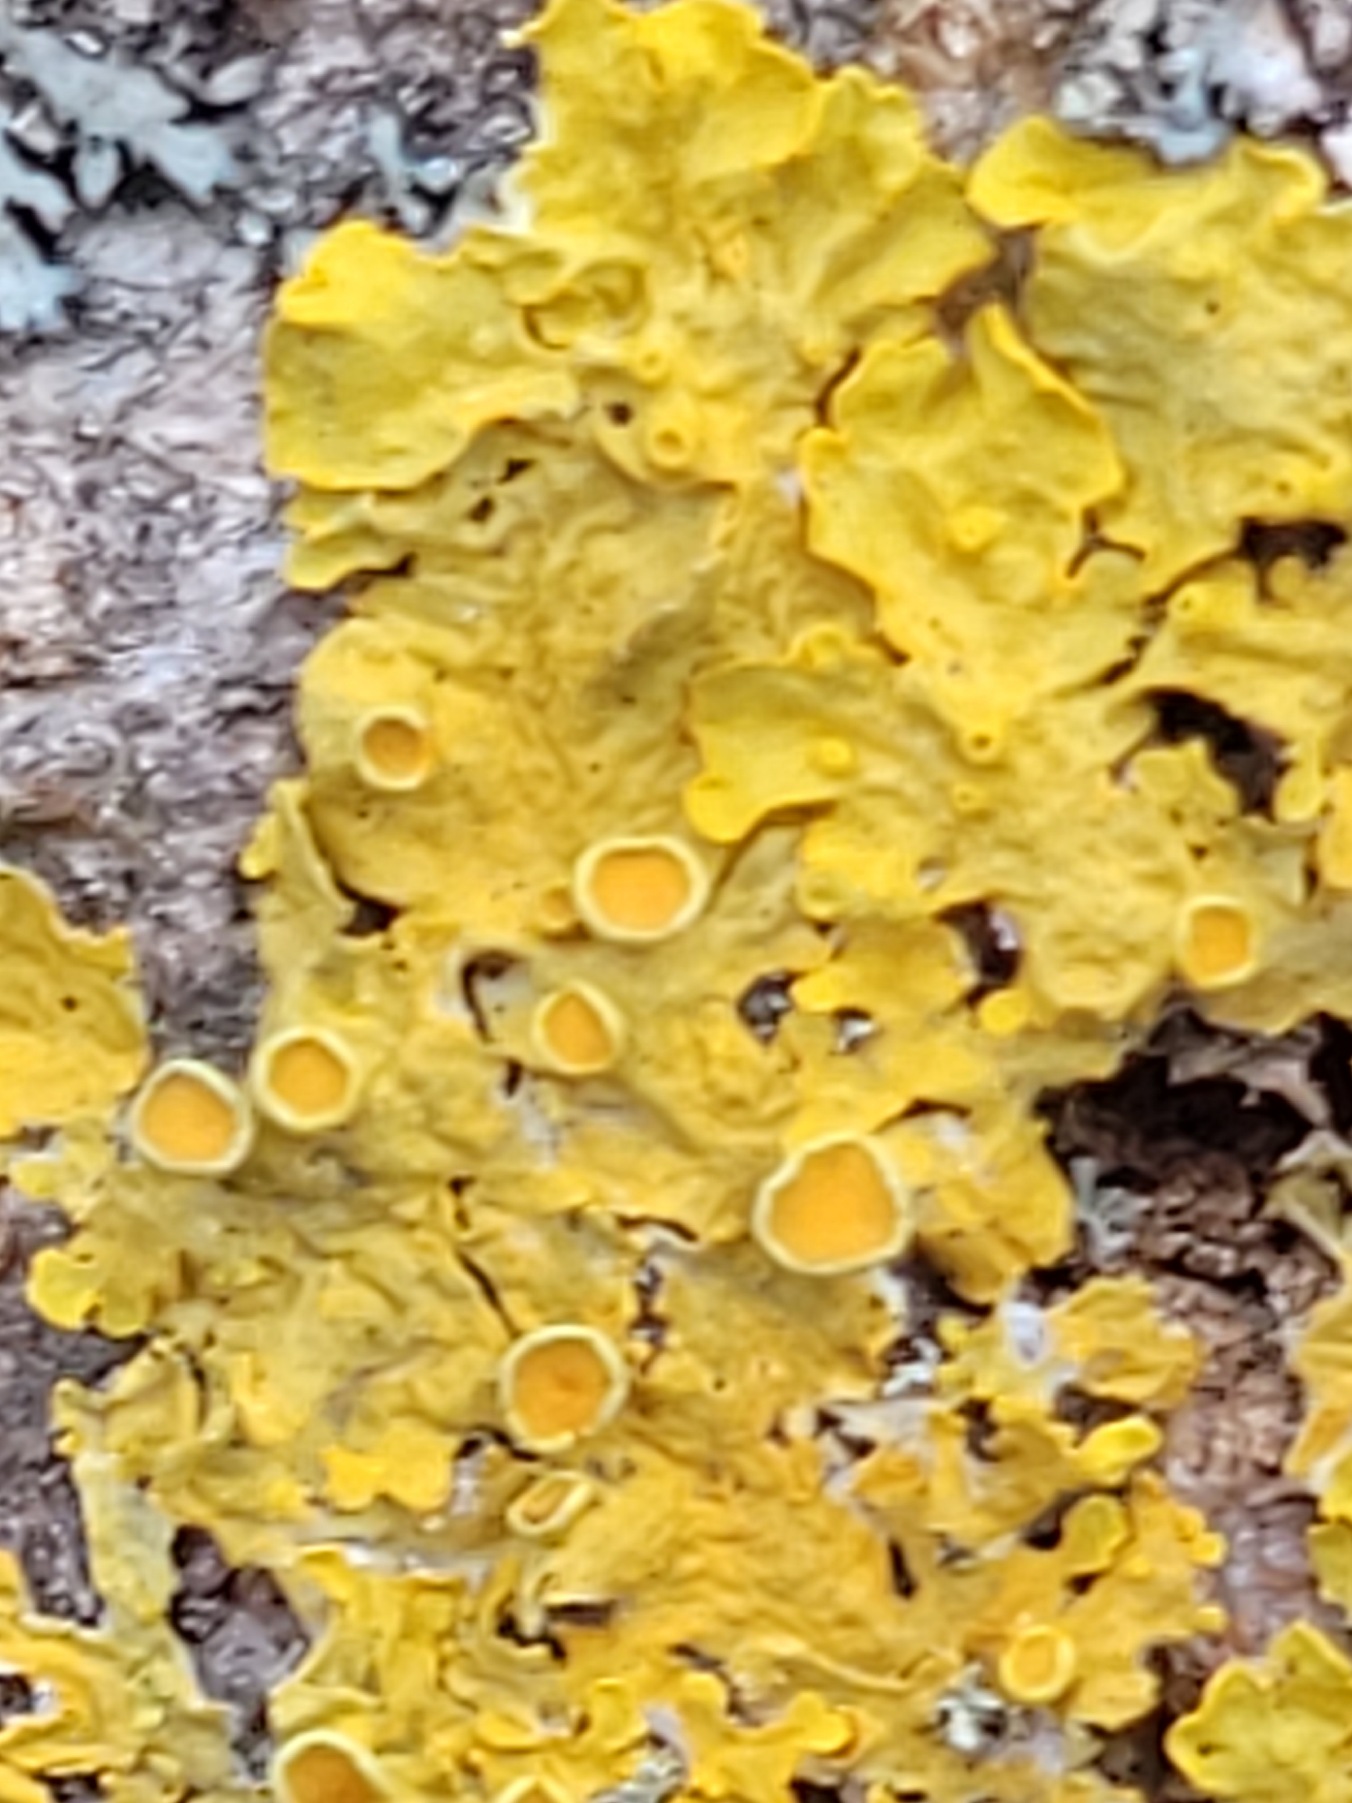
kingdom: Fungi
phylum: Ascomycota
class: Lecanoromycetes
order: Teloschistales
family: Teloschistaceae
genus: Xanthoria
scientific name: Xanthoria parietina
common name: Almindelig væggelav
